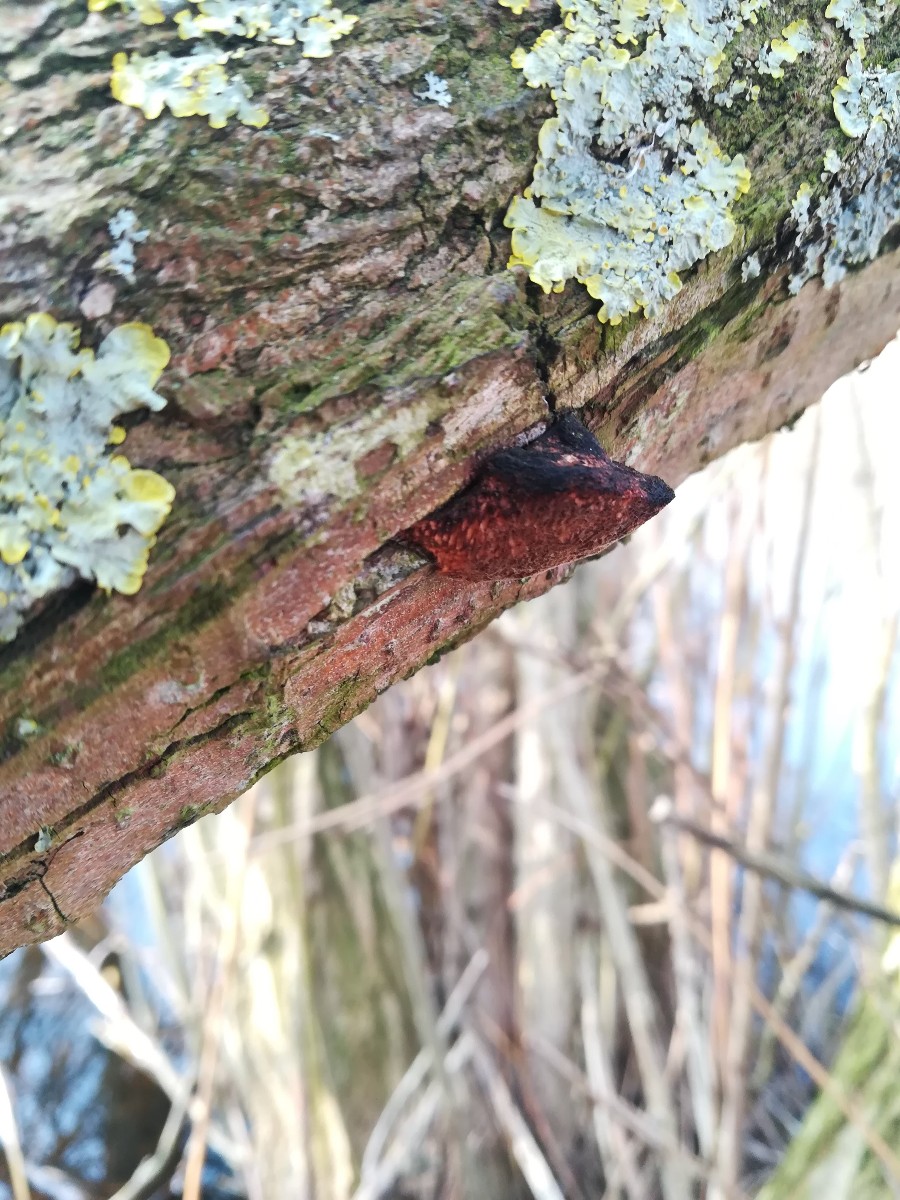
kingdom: Fungi
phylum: Basidiomycota
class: Agaricomycetes
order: Polyporales
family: Polyporaceae
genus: Daedaleopsis
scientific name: Daedaleopsis confragosa
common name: rødmende læderporesvamp
